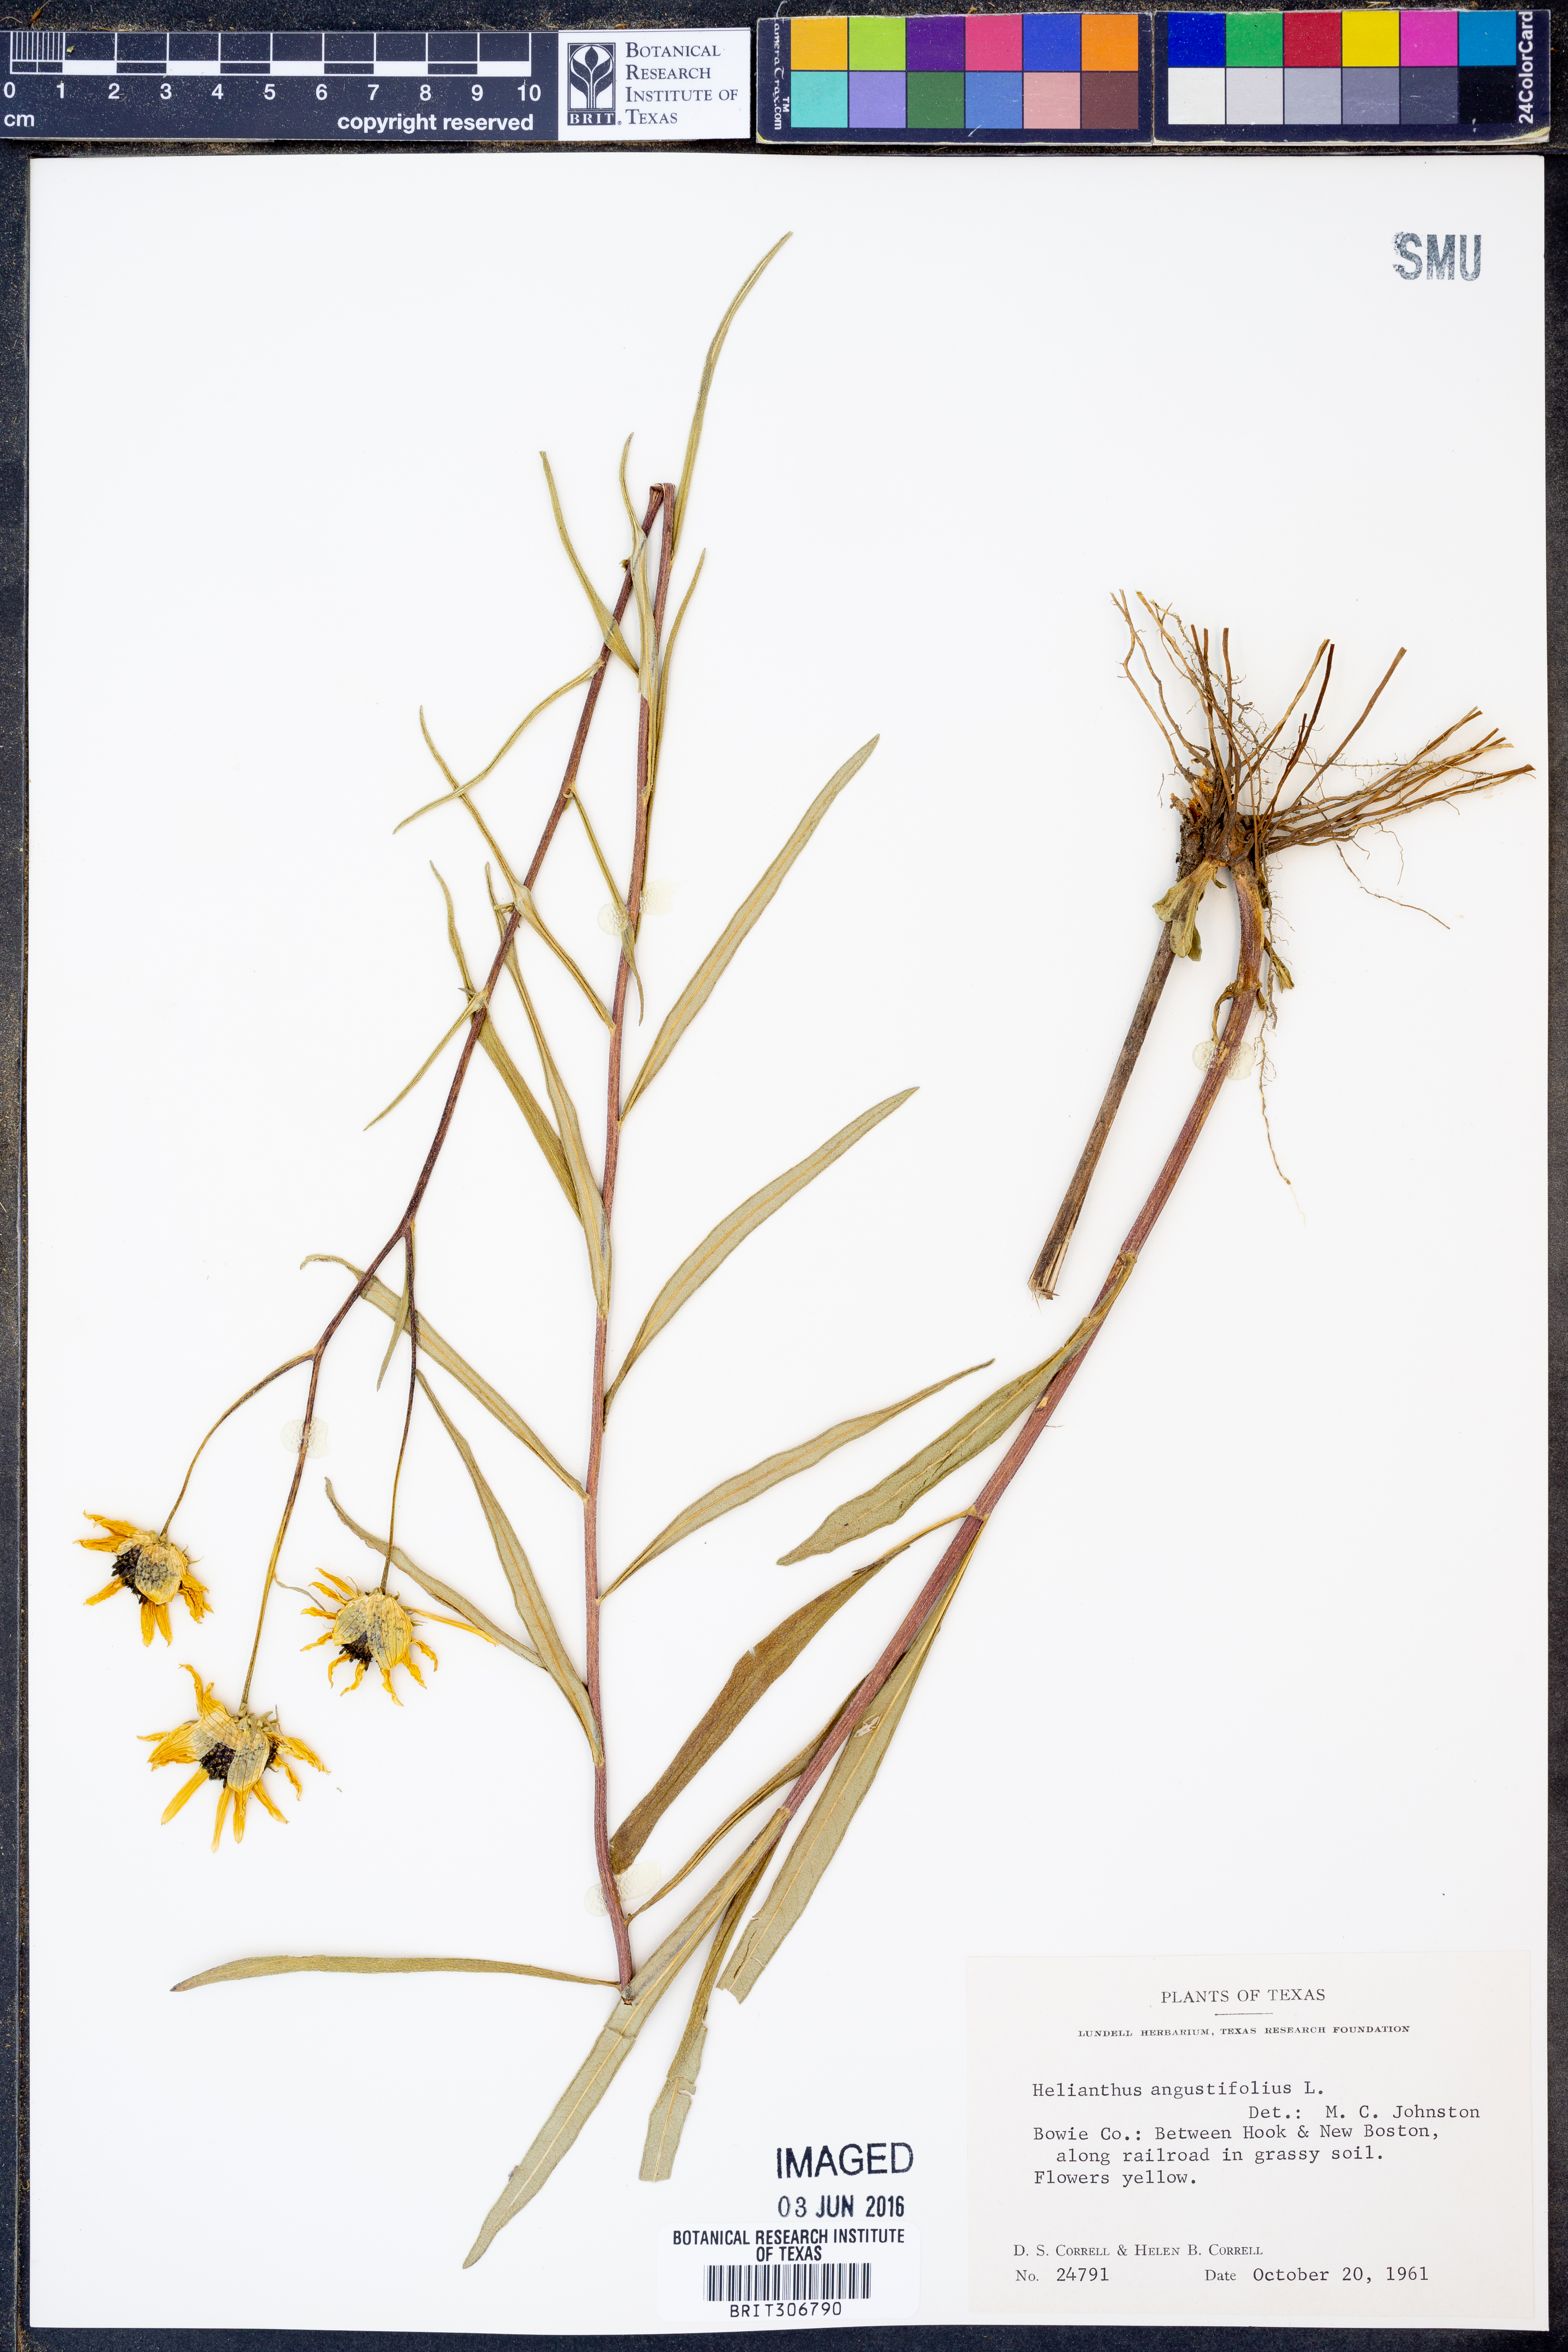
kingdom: Plantae
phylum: Tracheophyta
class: Magnoliopsida
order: Asterales
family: Asteraceae
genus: Helianthus
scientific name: Helianthus angustifolius
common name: Swamp sunflower
